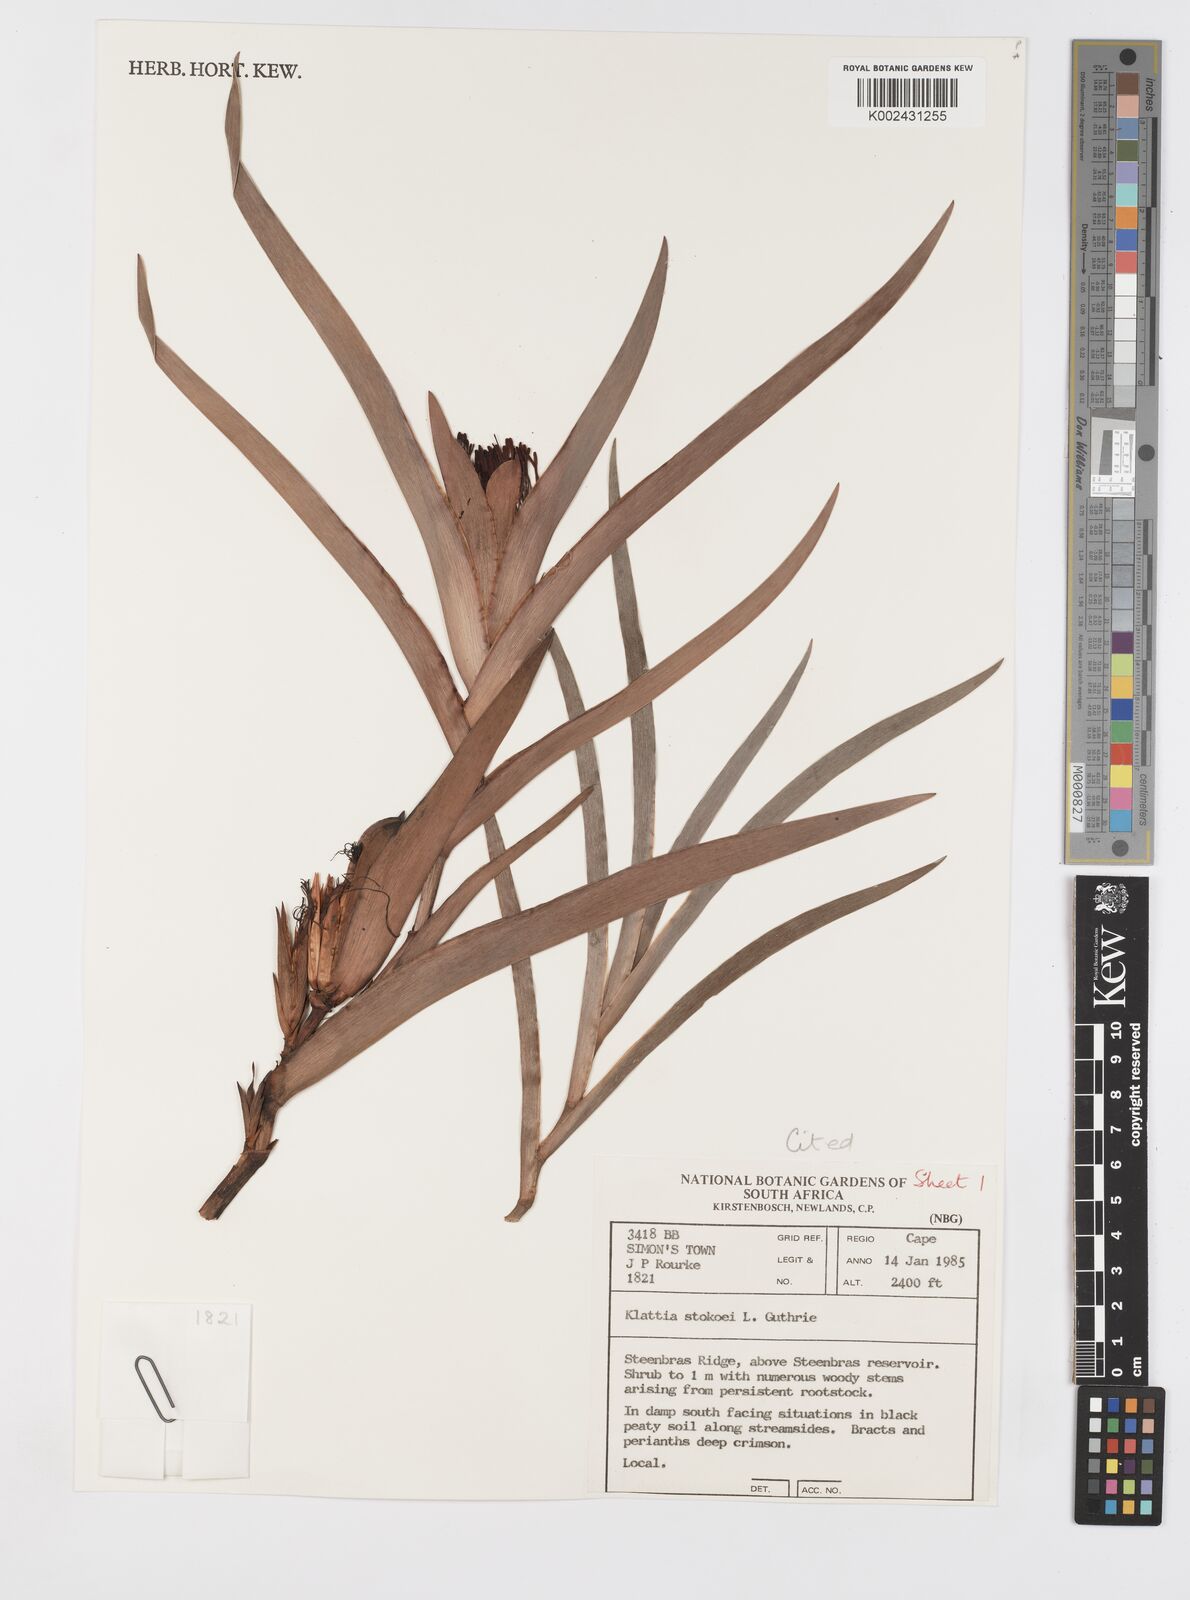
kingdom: Plantae
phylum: Tracheophyta
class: Liliopsida
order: Asparagales
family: Iridaceae
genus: Klattia
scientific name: Klattia stokoei
